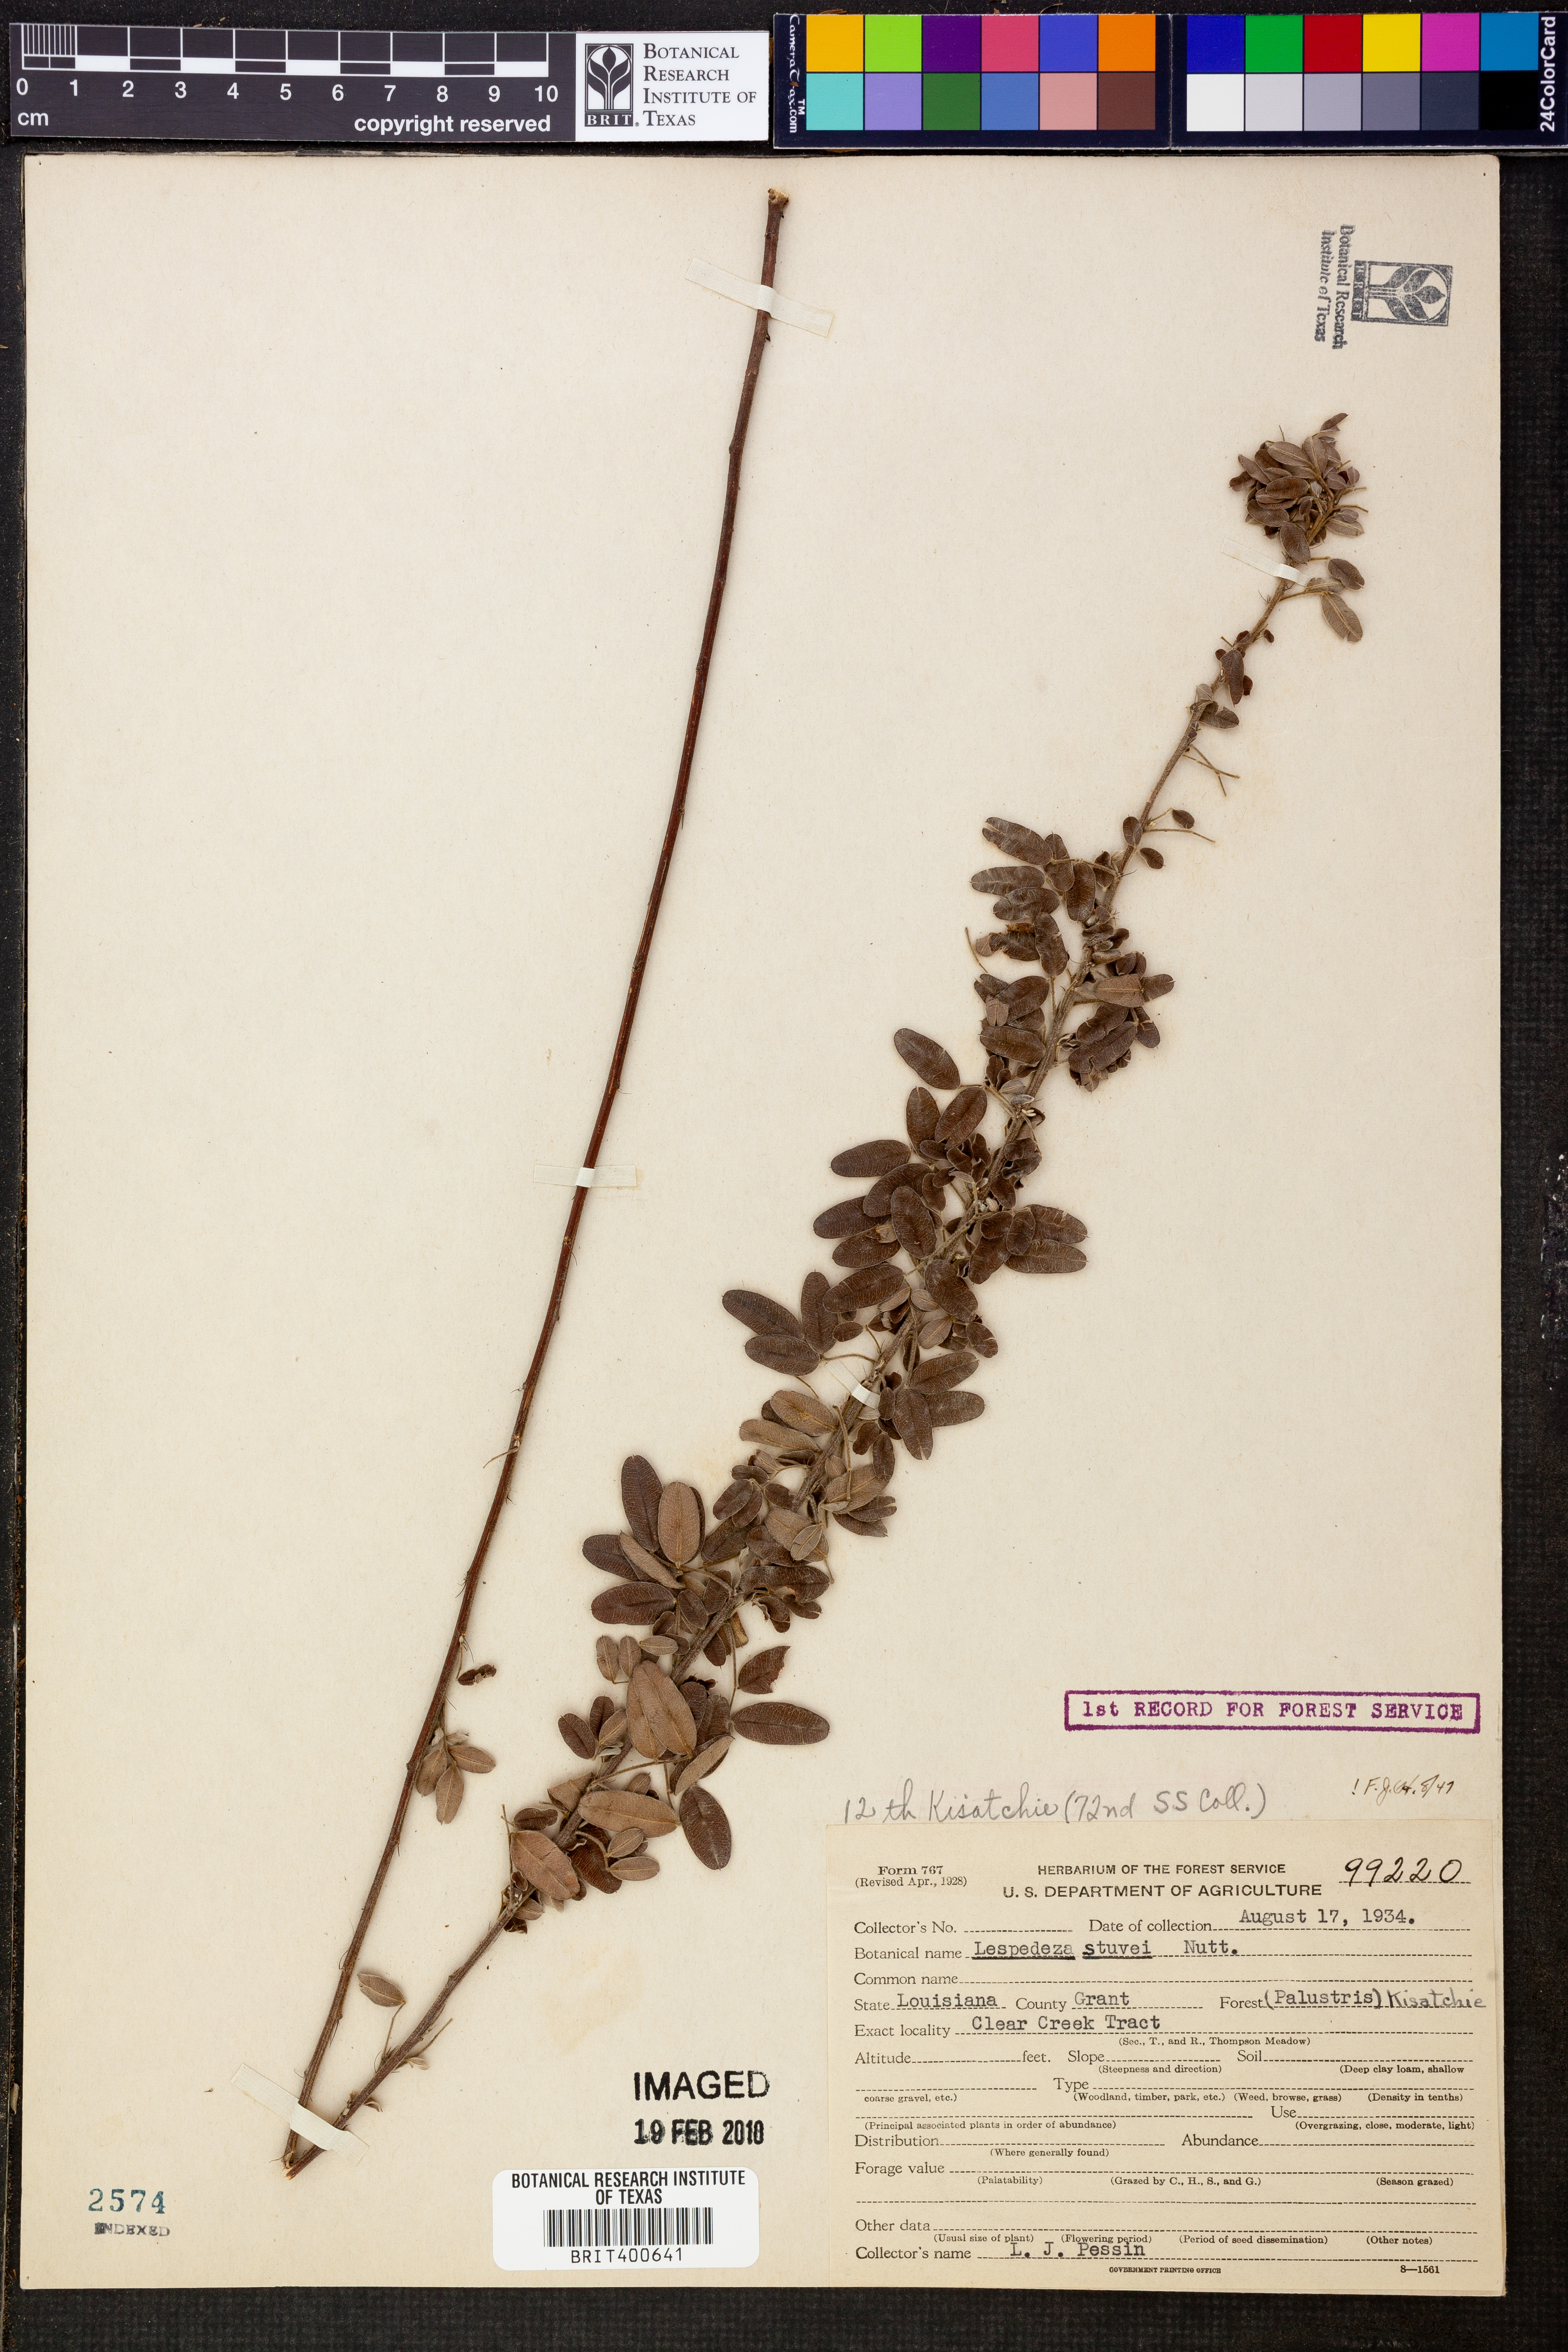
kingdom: Plantae
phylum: Tracheophyta
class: Magnoliopsida
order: Fabales
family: Fabaceae
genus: Lespedeza
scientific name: Lespedeza stuevei
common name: Tall bush-clover
